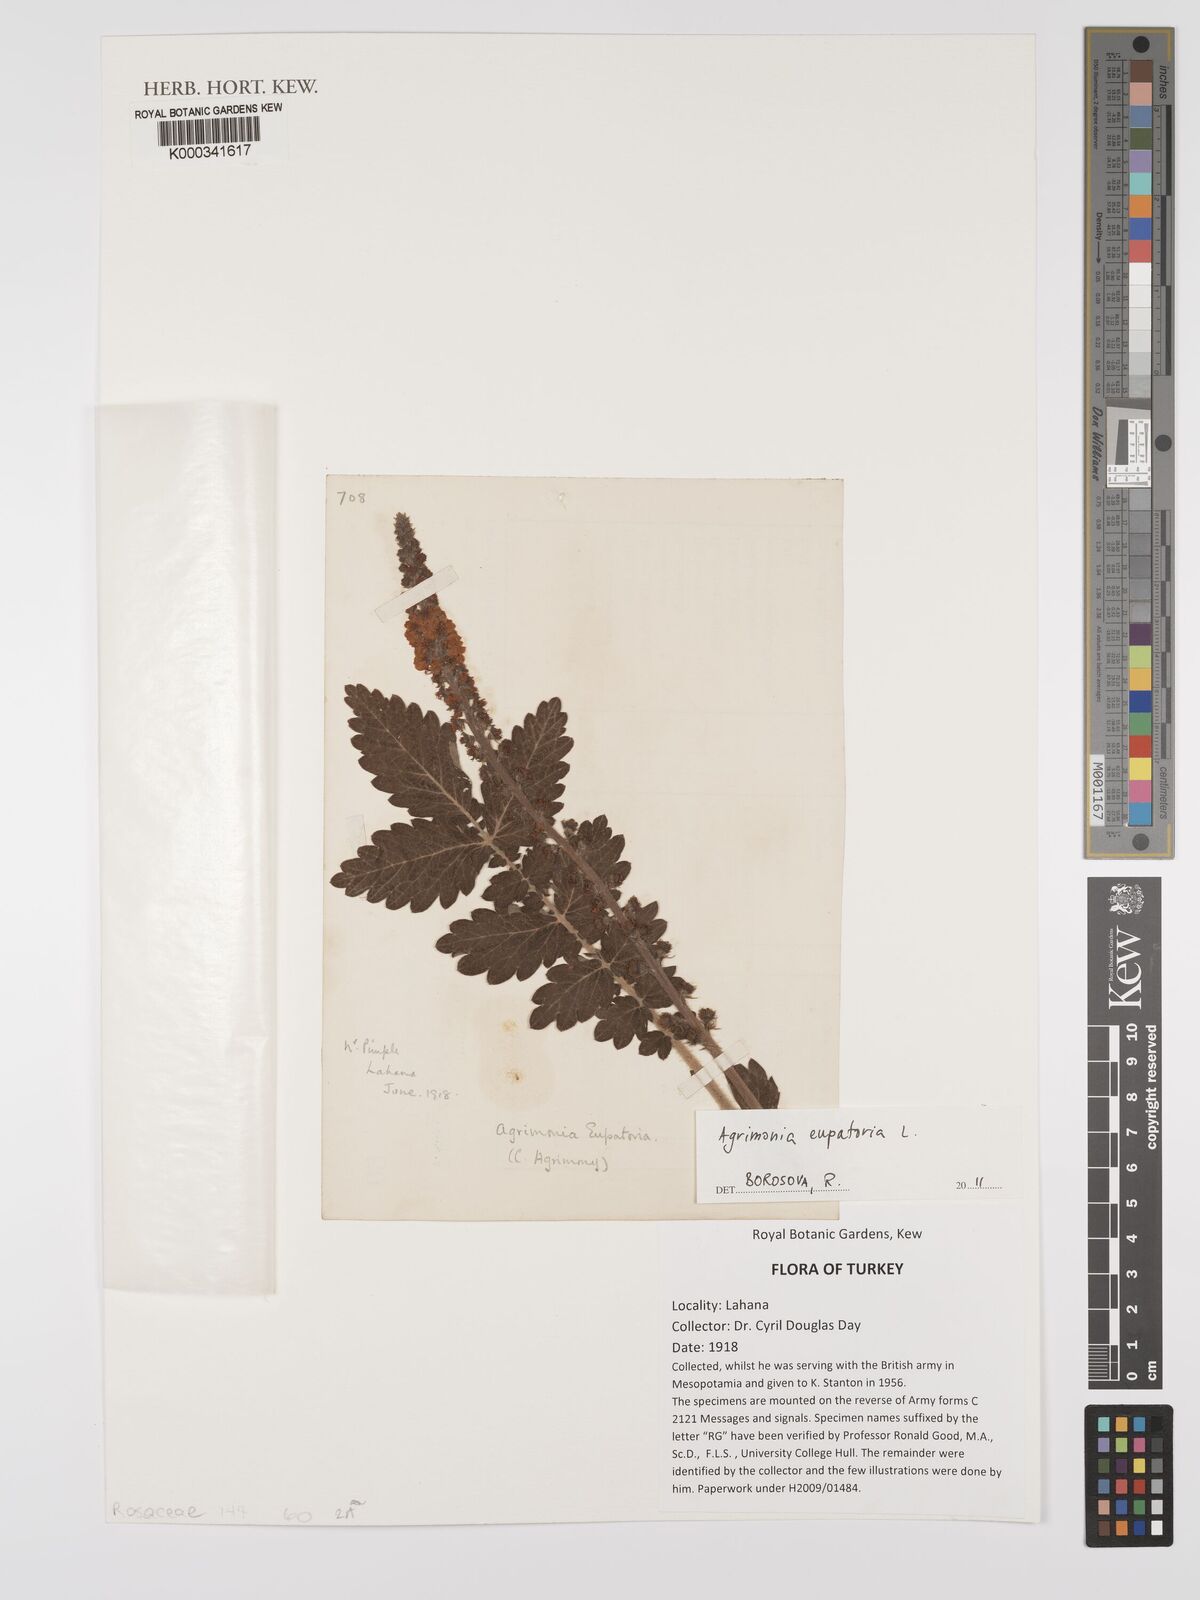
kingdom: Plantae
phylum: Tracheophyta
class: Magnoliopsida
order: Rosales
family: Rosaceae
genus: Agrimonia
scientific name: Agrimonia eupatoria
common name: Agrimony
